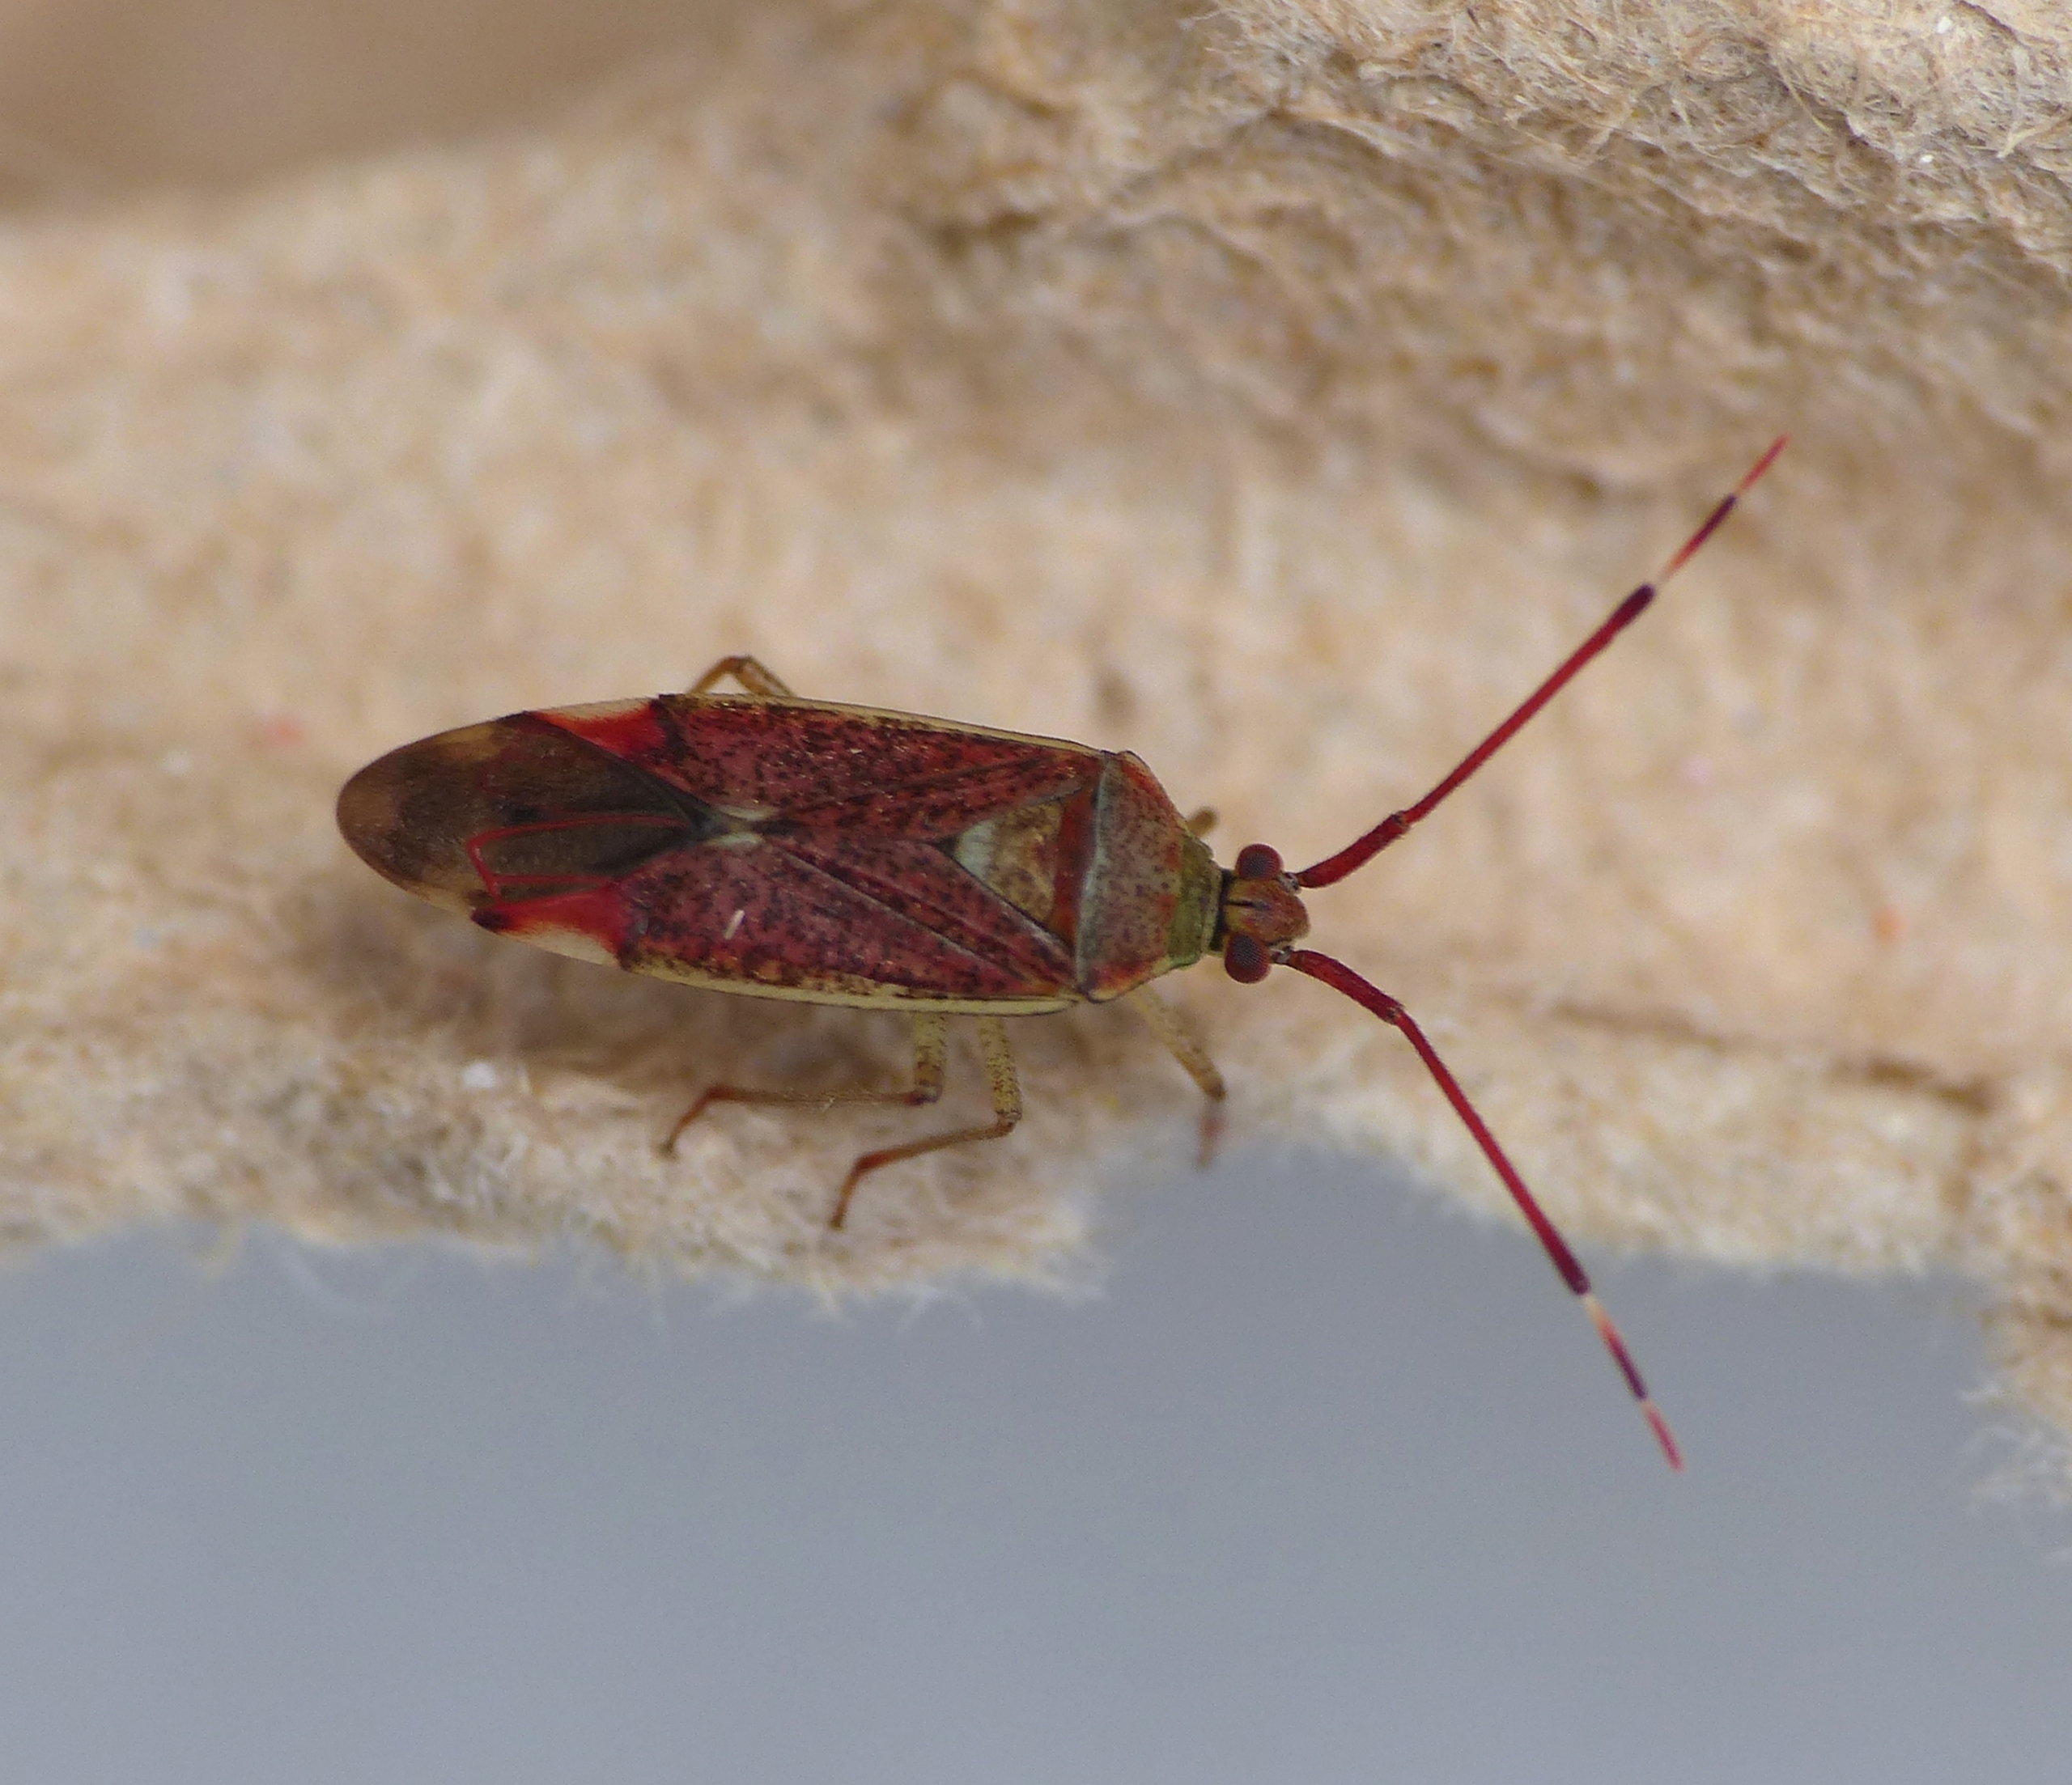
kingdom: Animalia
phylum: Arthropoda
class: Insecta
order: Hemiptera
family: Miridae
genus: Pantilius
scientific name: Pantilius tunicatus
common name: Stor hasseltæge
